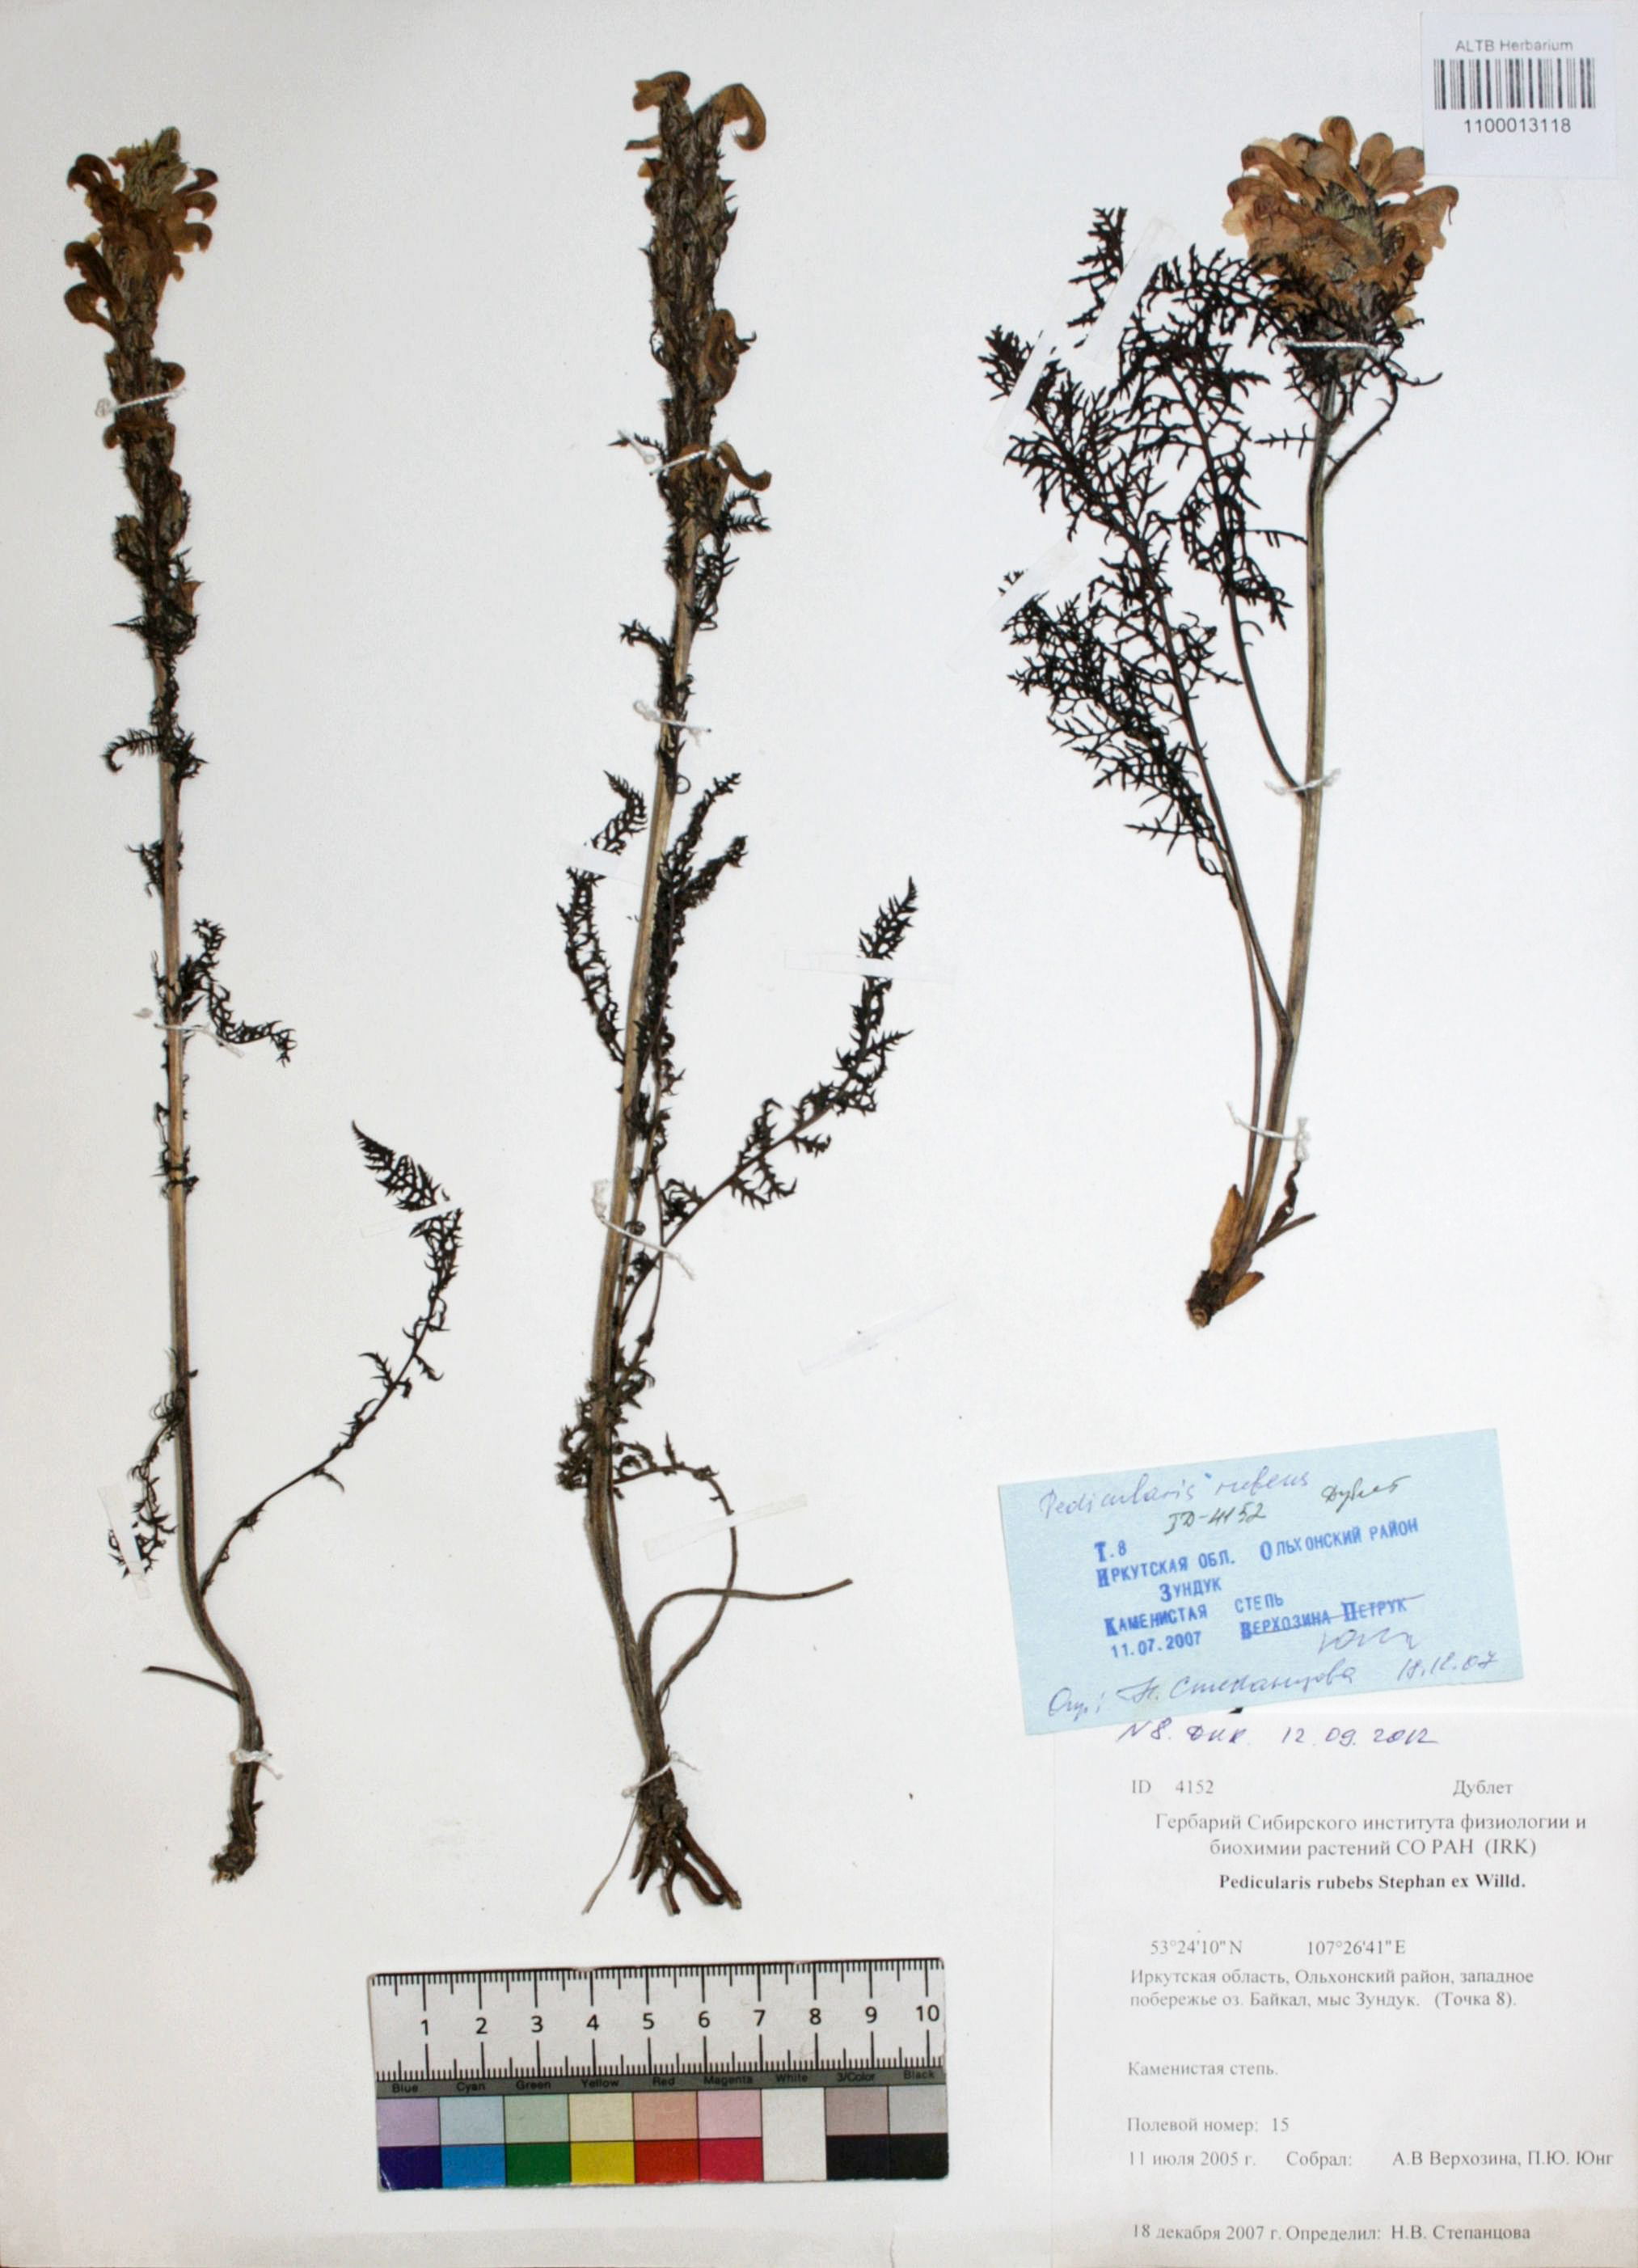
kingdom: Plantae
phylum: Tracheophyta
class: Magnoliopsida
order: Lamiales
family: Orobanchaceae
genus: Pedicularis
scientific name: Pedicularis rubens
